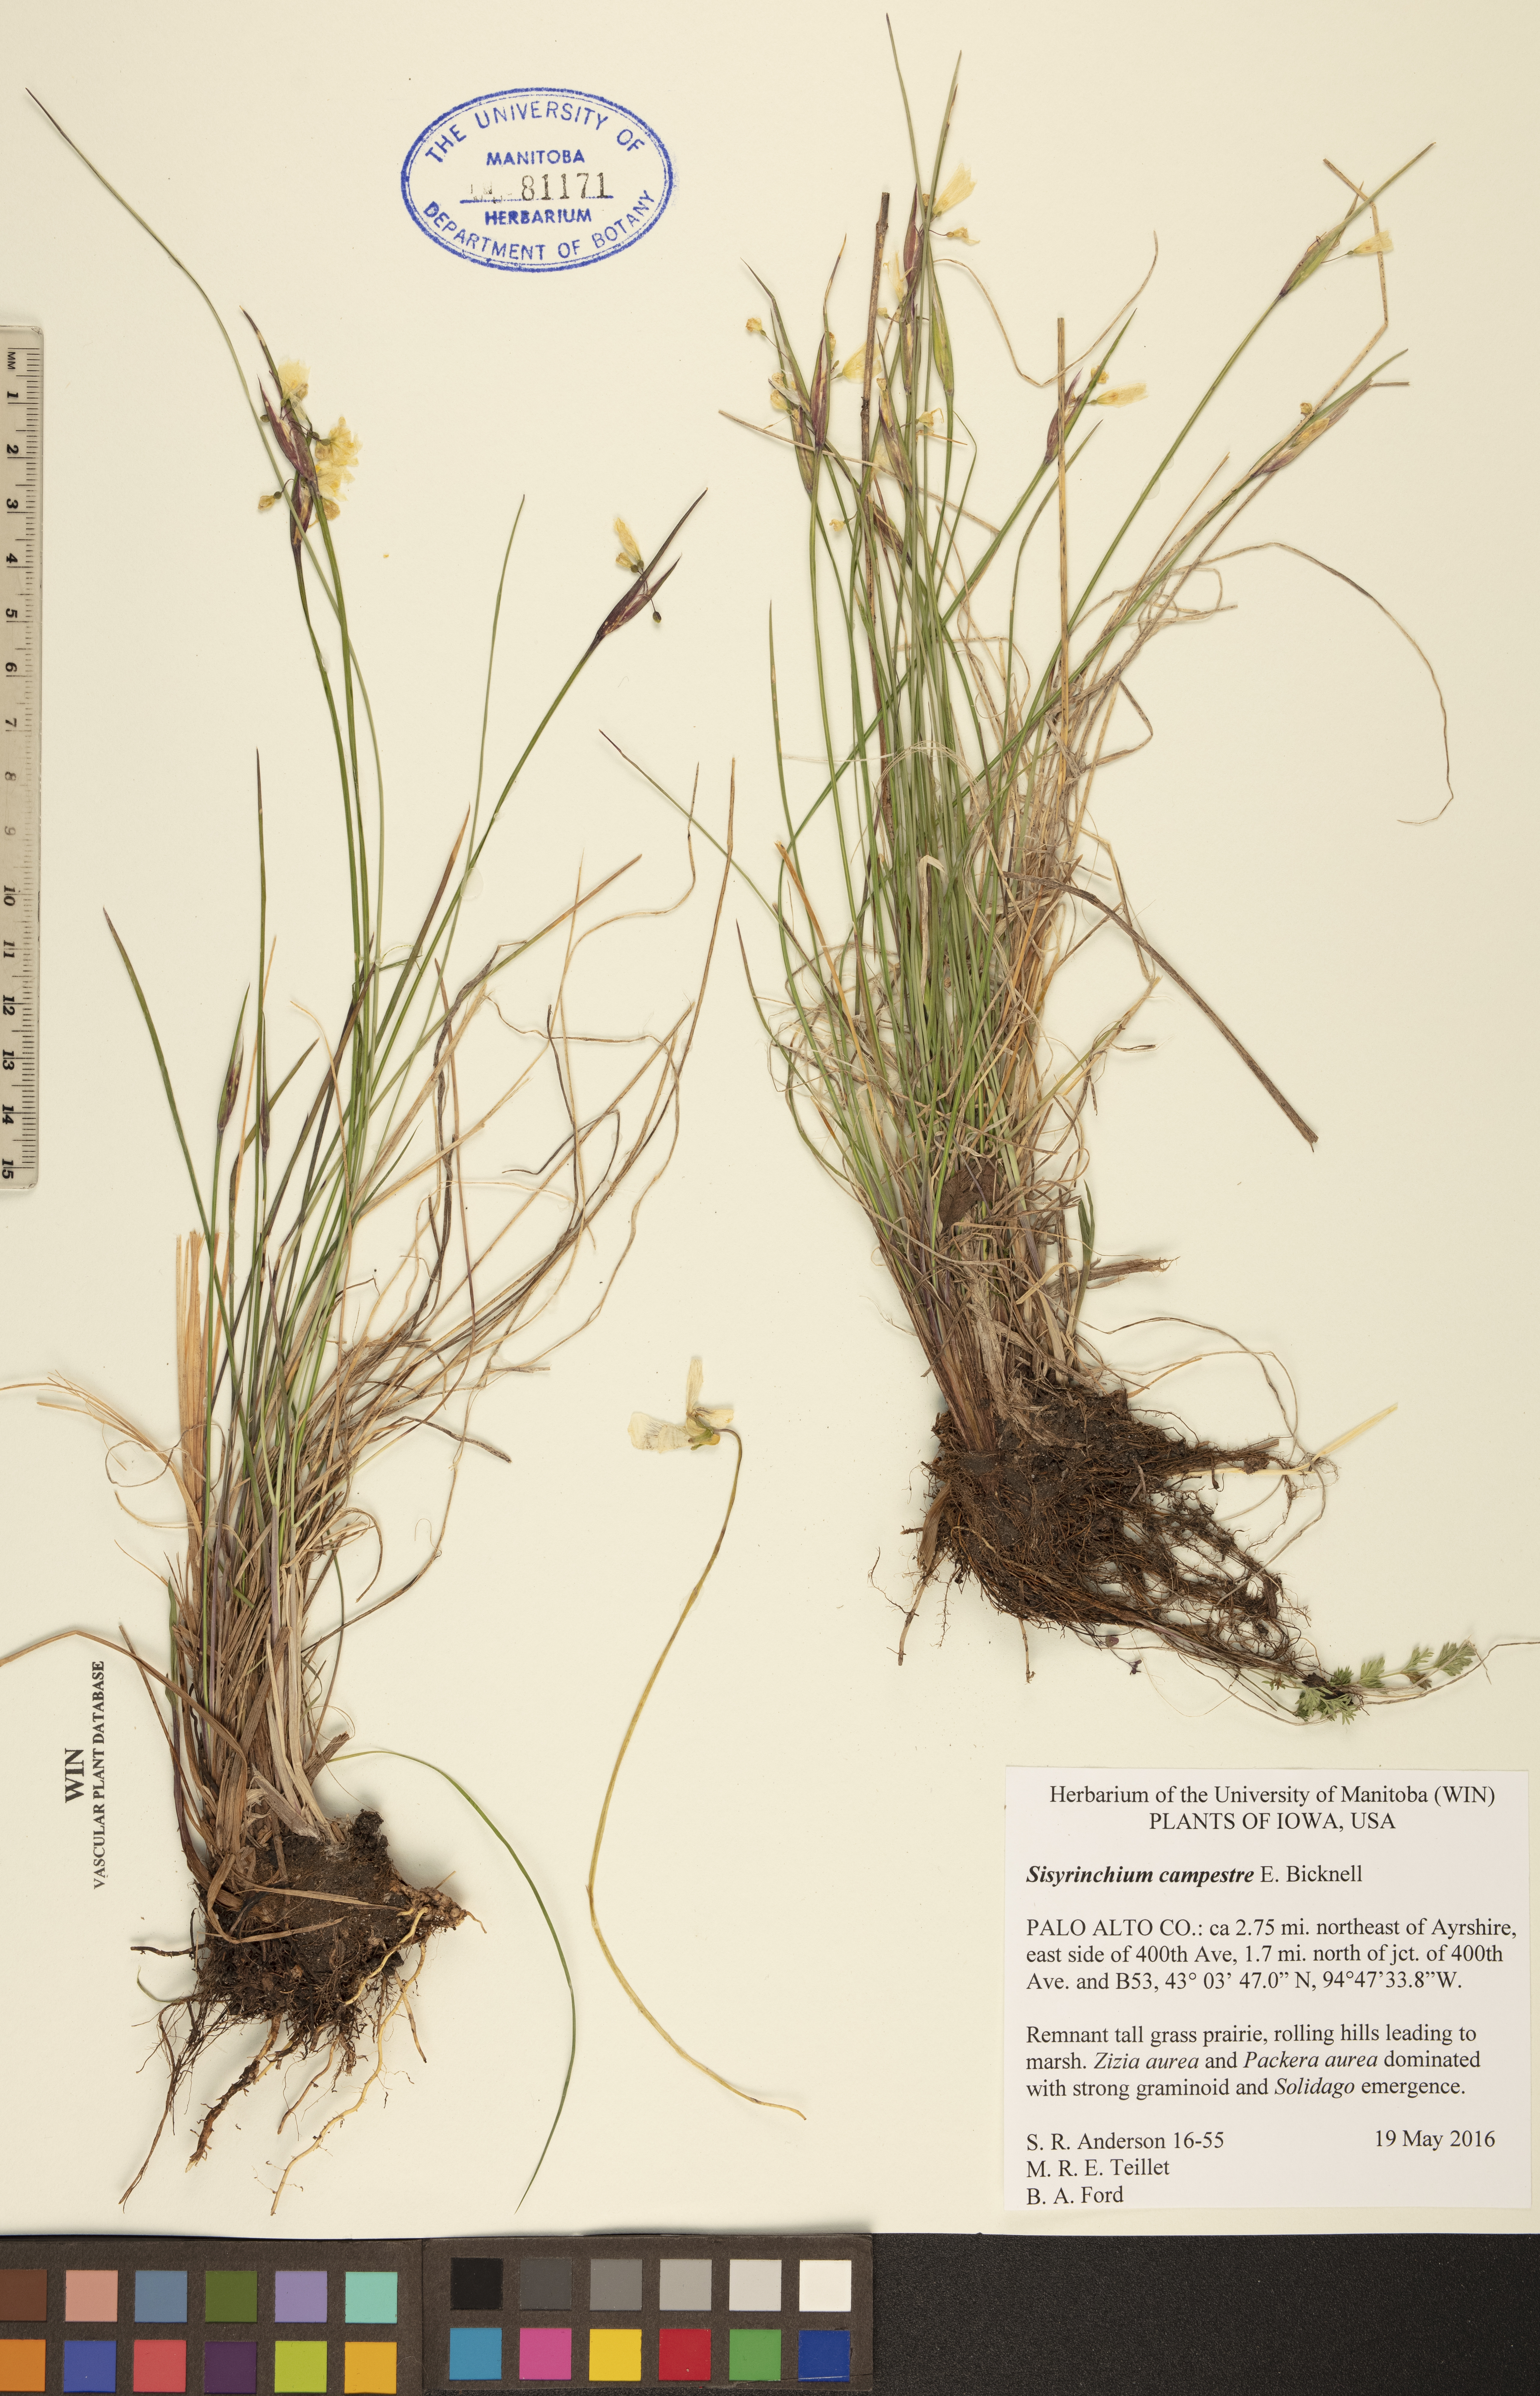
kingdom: Plantae
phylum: Tracheophyta
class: Liliopsida
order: Asparagales
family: Iridaceae
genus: Sisyrinchium
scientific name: Sisyrinchium campestre
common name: Prairie blue-eyed-grass
